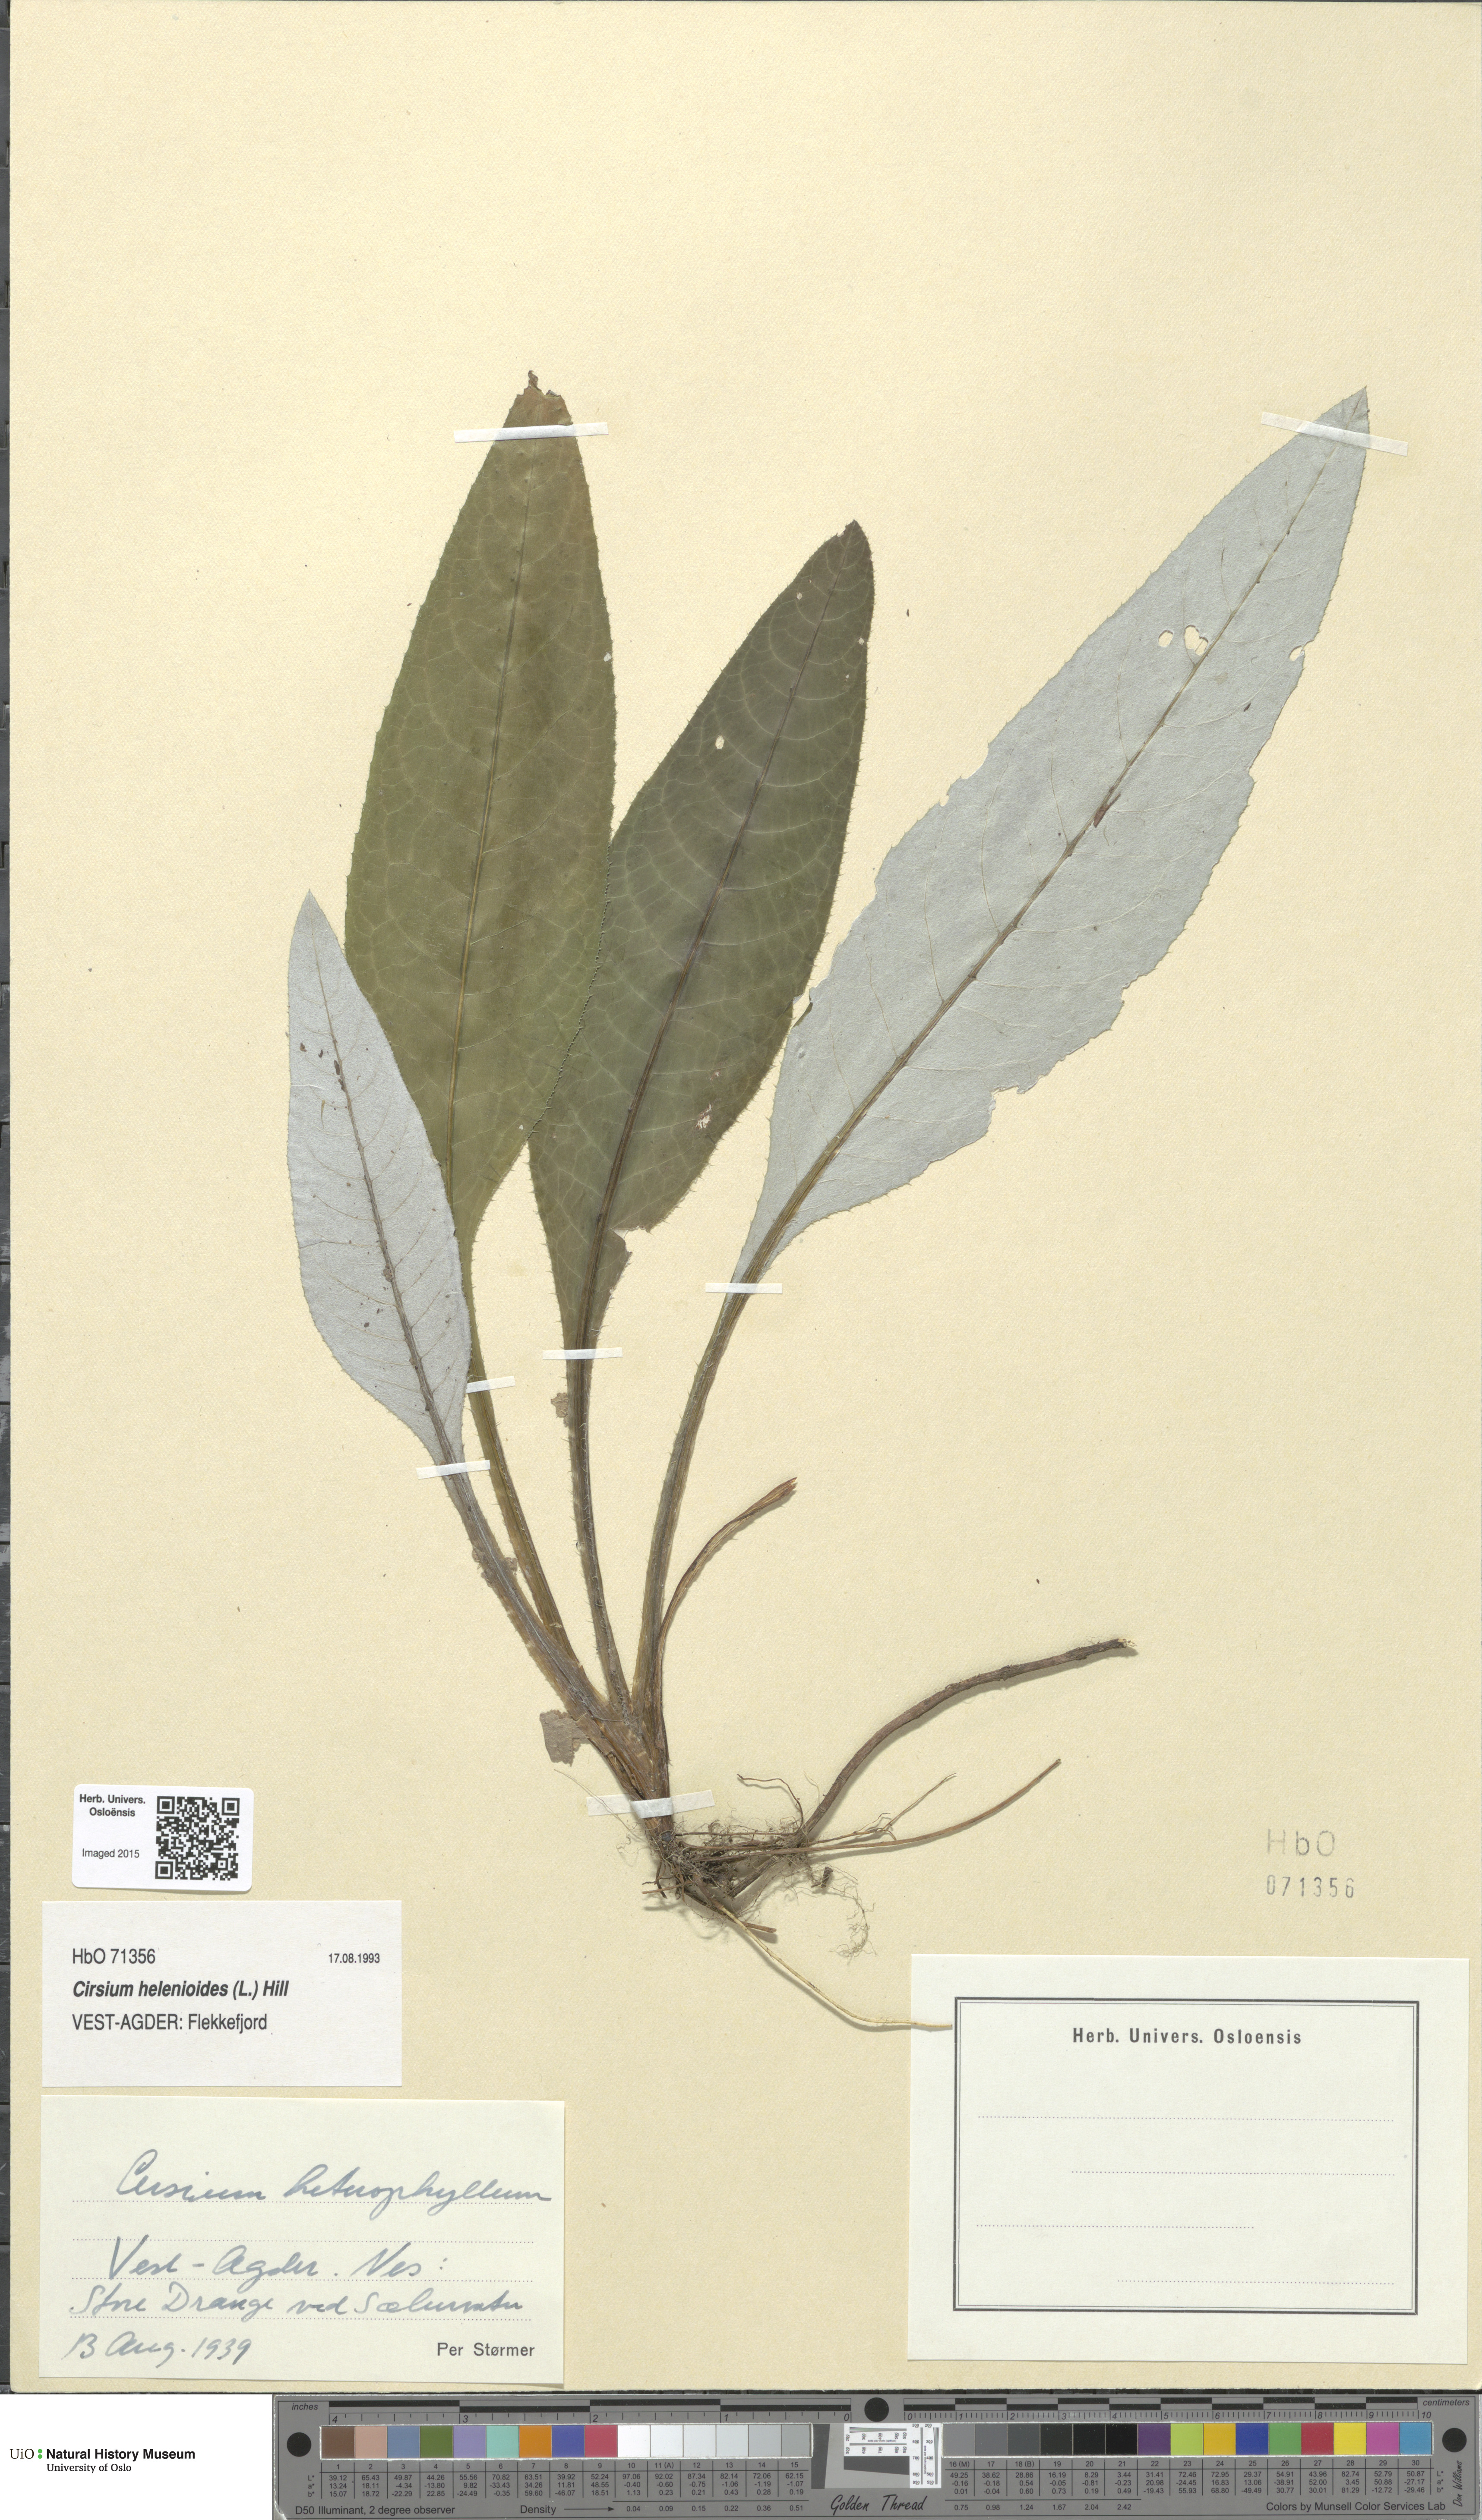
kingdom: Plantae
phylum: Tracheophyta
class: Magnoliopsida
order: Asterales
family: Asteraceae
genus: Cirsium
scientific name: Cirsium heterophyllum
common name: Melancholy thistle
